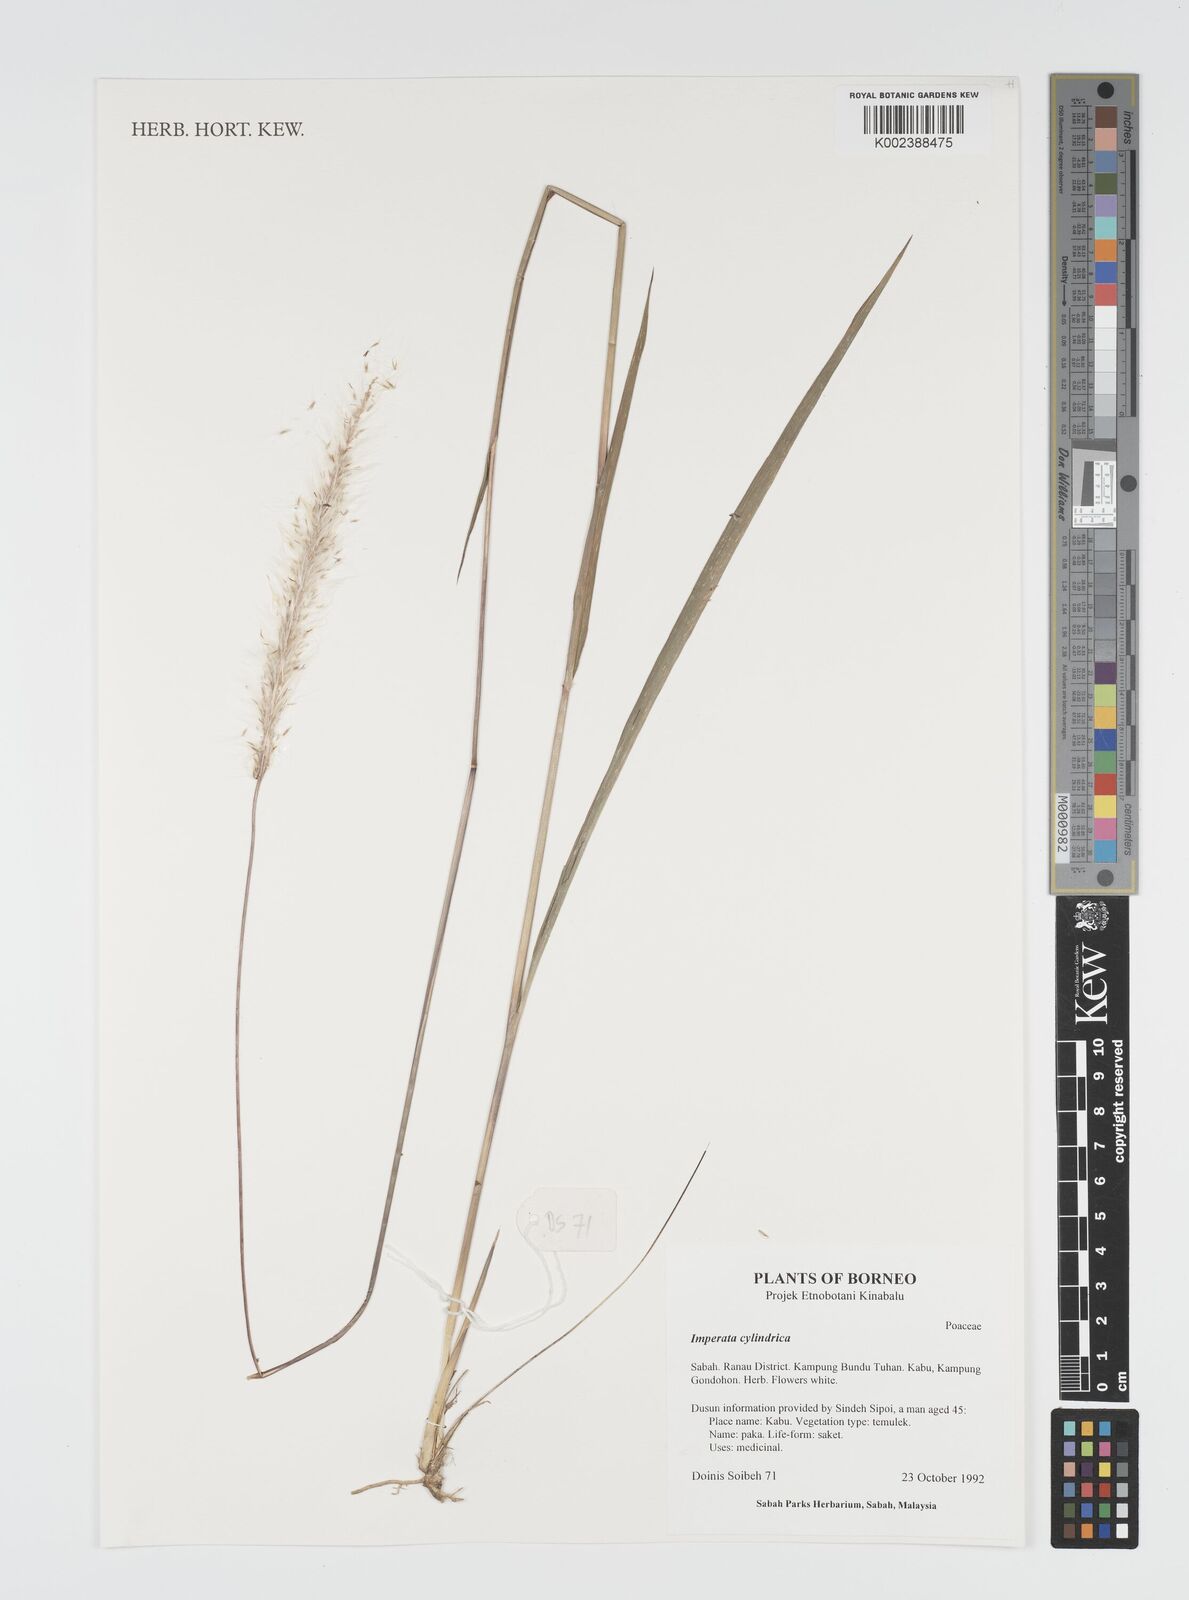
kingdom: Plantae
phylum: Tracheophyta
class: Liliopsida
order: Poales
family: Poaceae
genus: Imperata
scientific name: Imperata cylindrica
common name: Cogongrass
